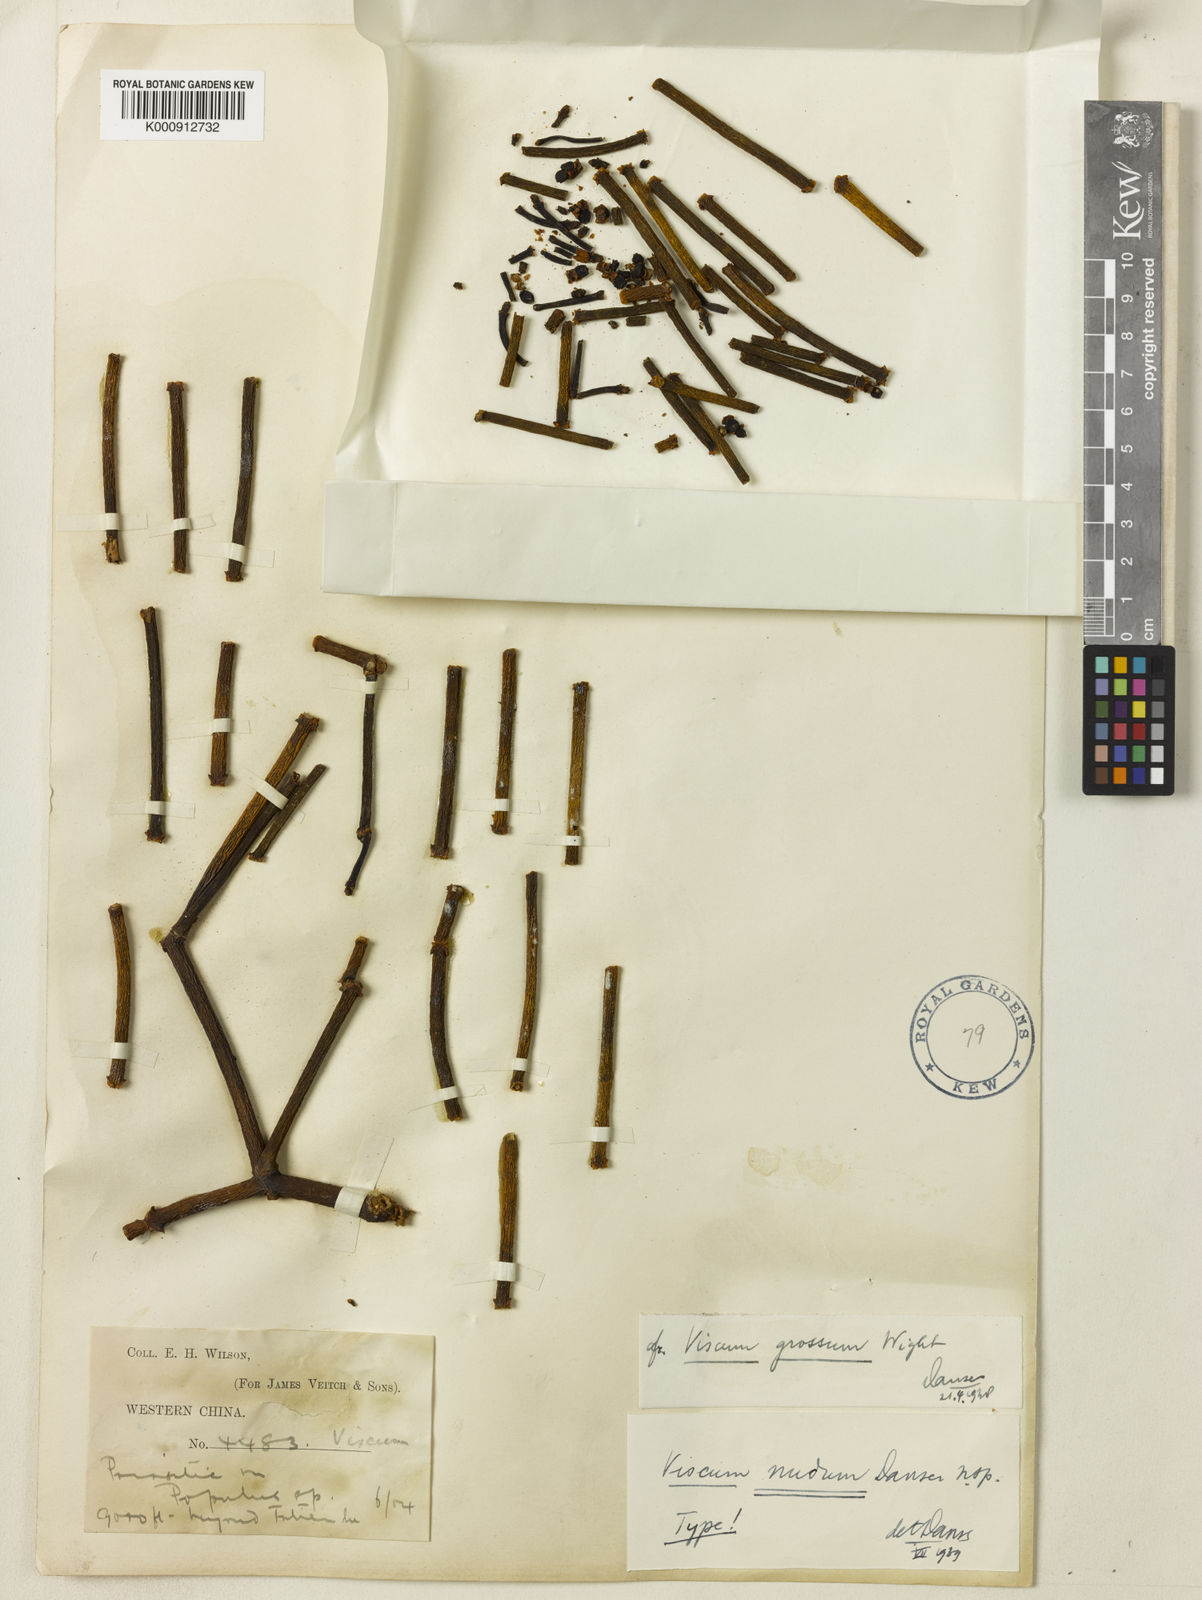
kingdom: Plantae
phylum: Tracheophyta
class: Magnoliopsida
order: Santalales
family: Viscaceae
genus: Viscum
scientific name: Viscum nudum
